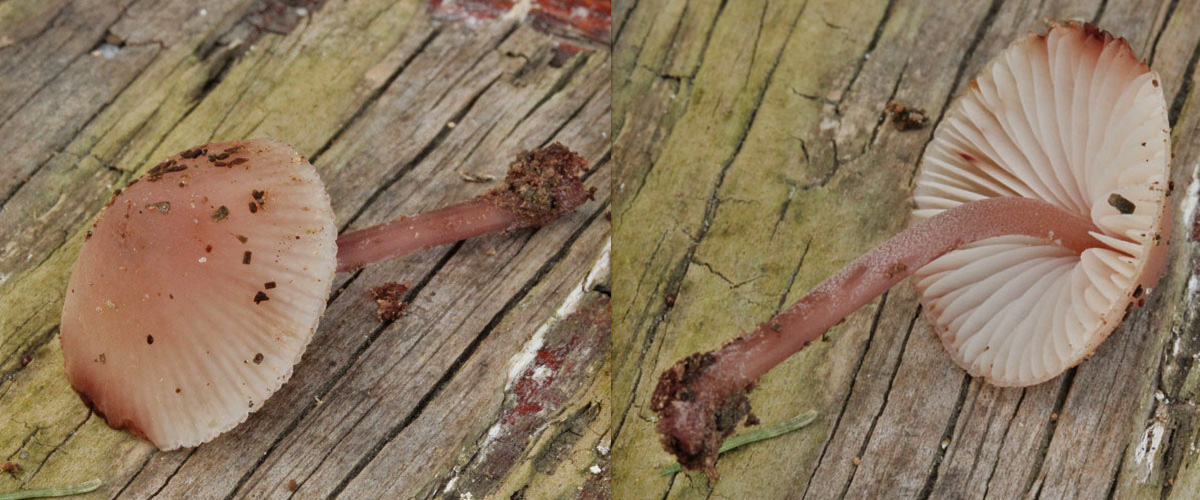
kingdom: Fungi
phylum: Basidiomycota
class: Agaricomycetes
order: Agaricales
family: Mycenaceae
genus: Mycena
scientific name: Mycena haematopus
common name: blødende huesvamp
